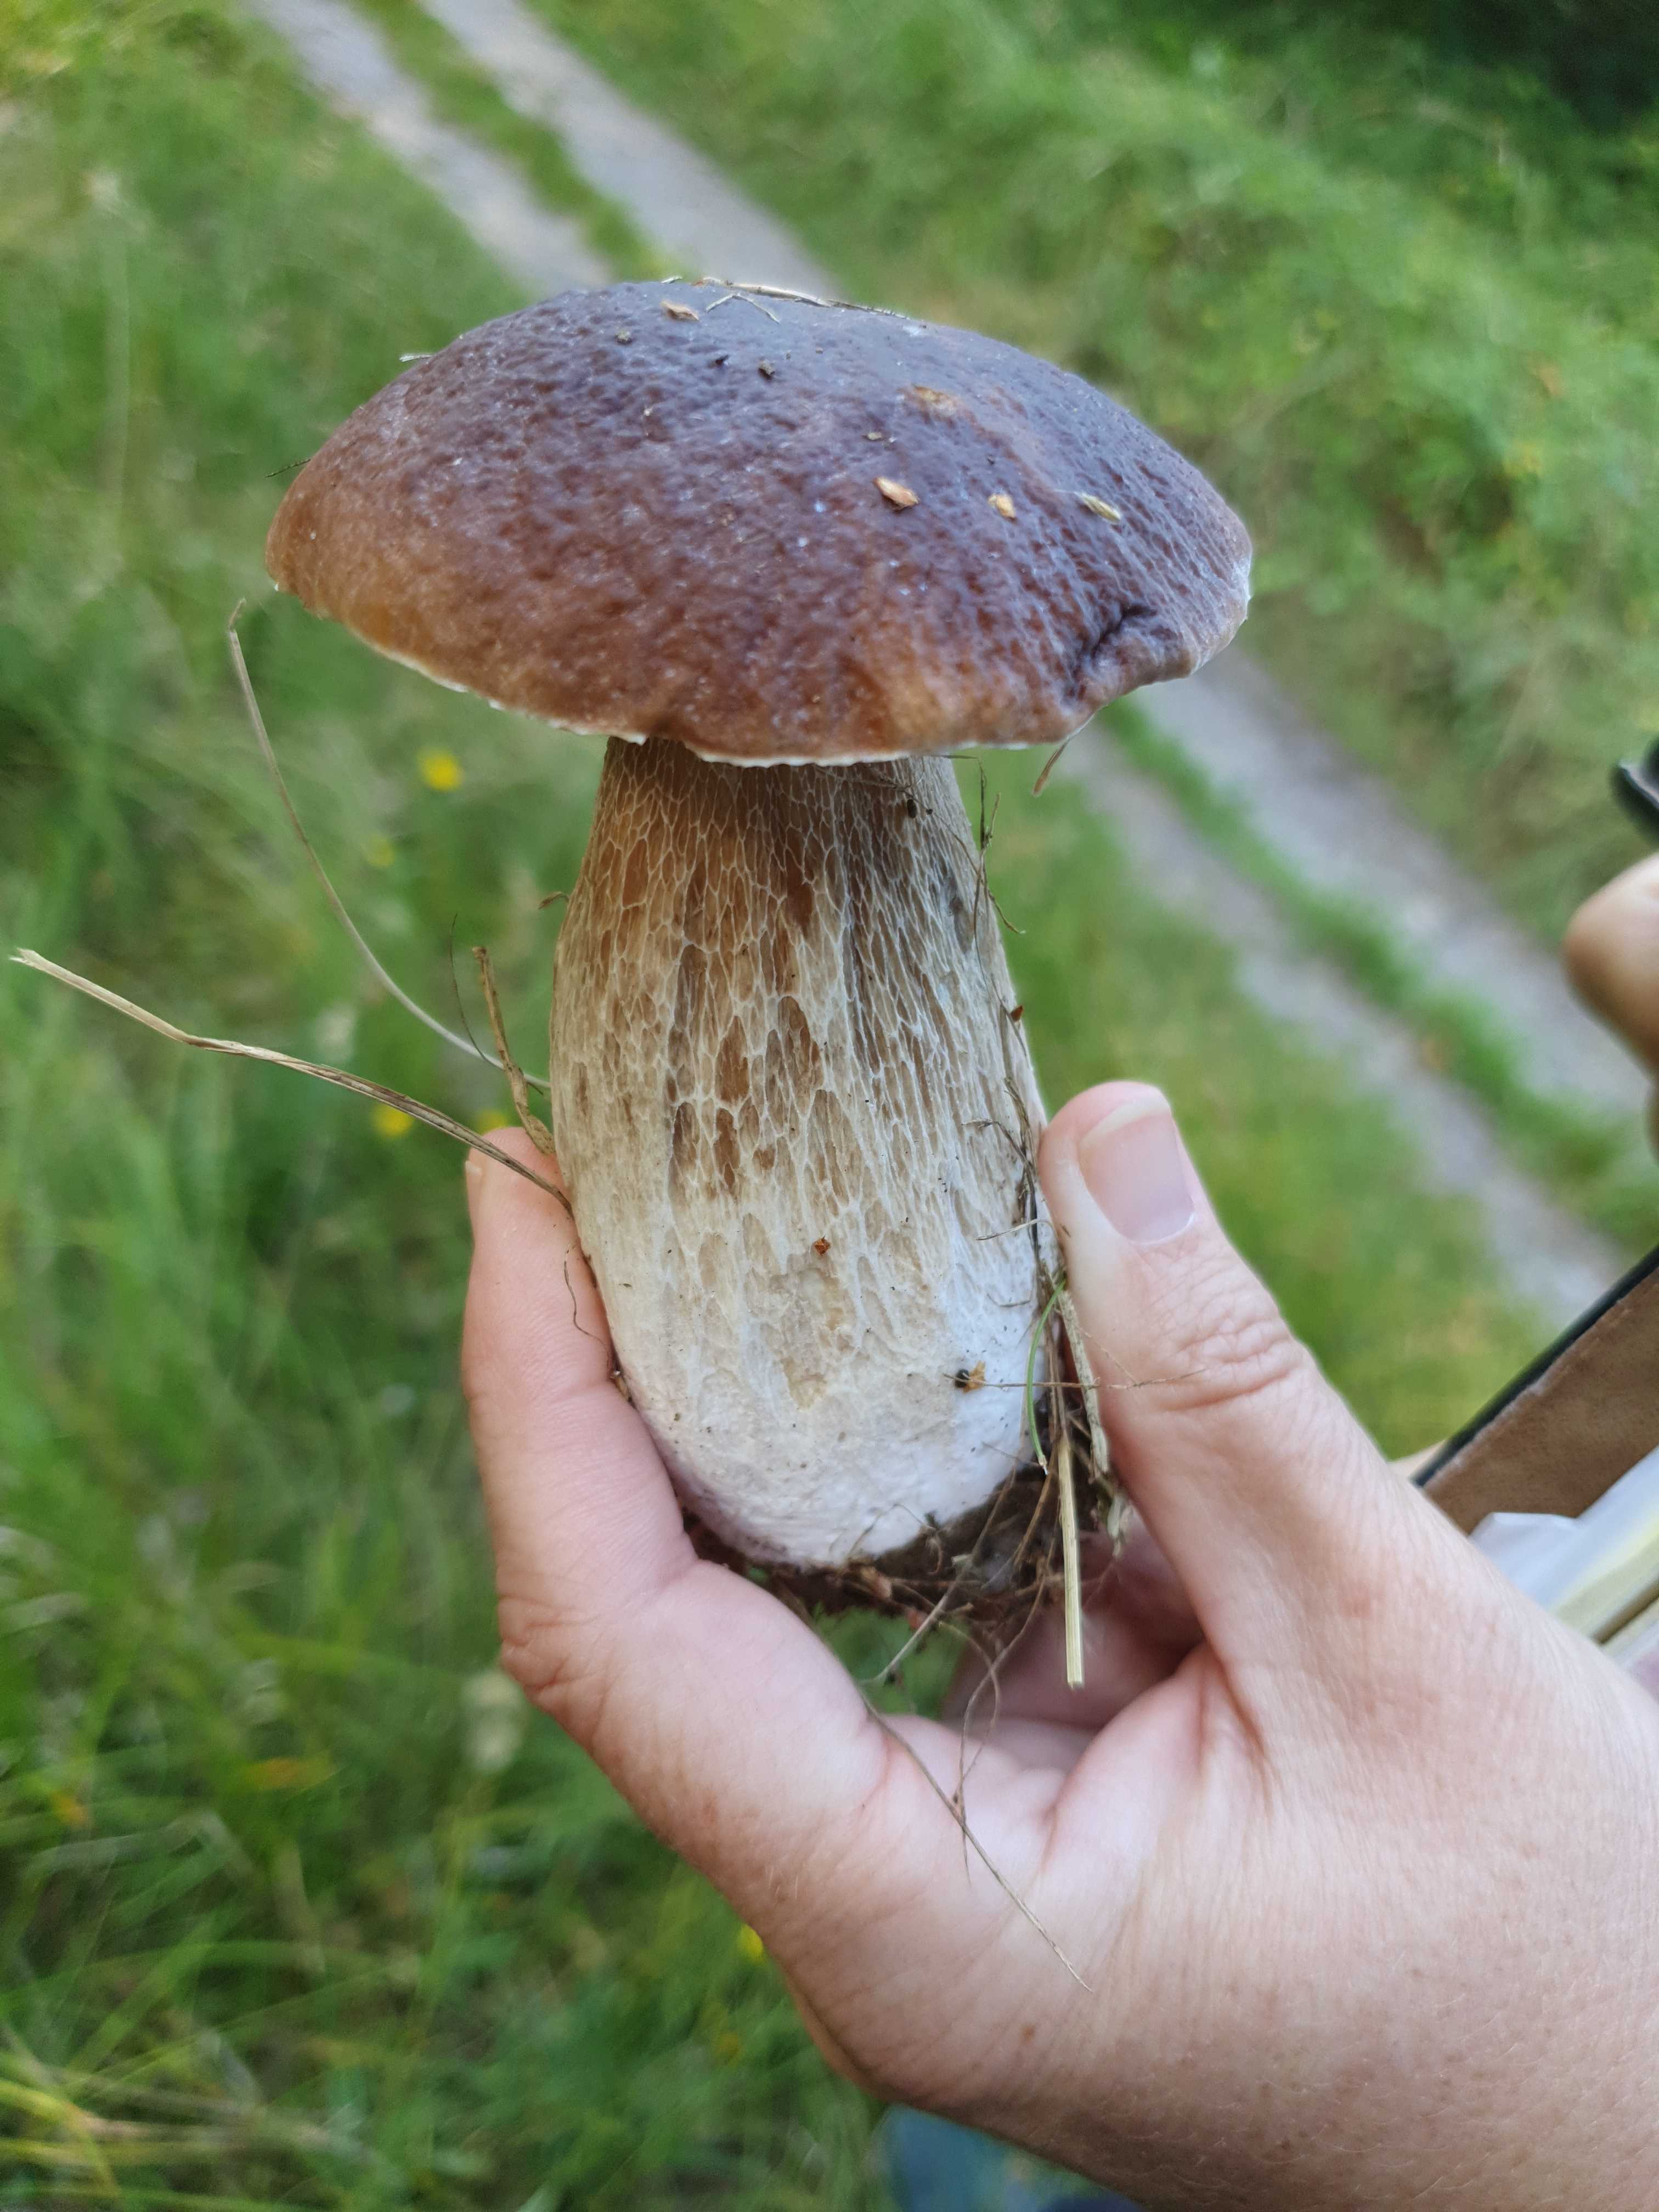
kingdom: Fungi
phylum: Basidiomycota
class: Agaricomycetes
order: Boletales
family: Boletaceae
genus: Boletus
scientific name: Boletus edulis
